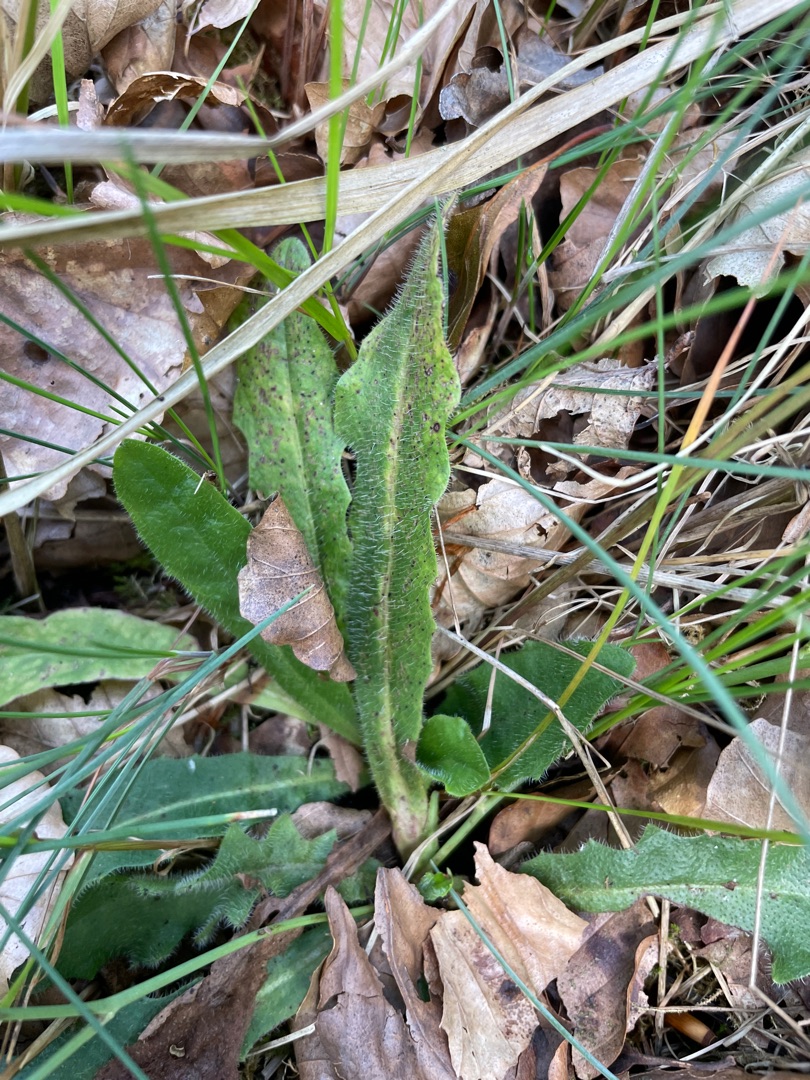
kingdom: Plantae
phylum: Tracheophyta
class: Magnoliopsida
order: Asterales
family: Asteraceae
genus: Hypochaeris
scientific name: Hypochaeris radicata
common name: Almindelig kongepen
